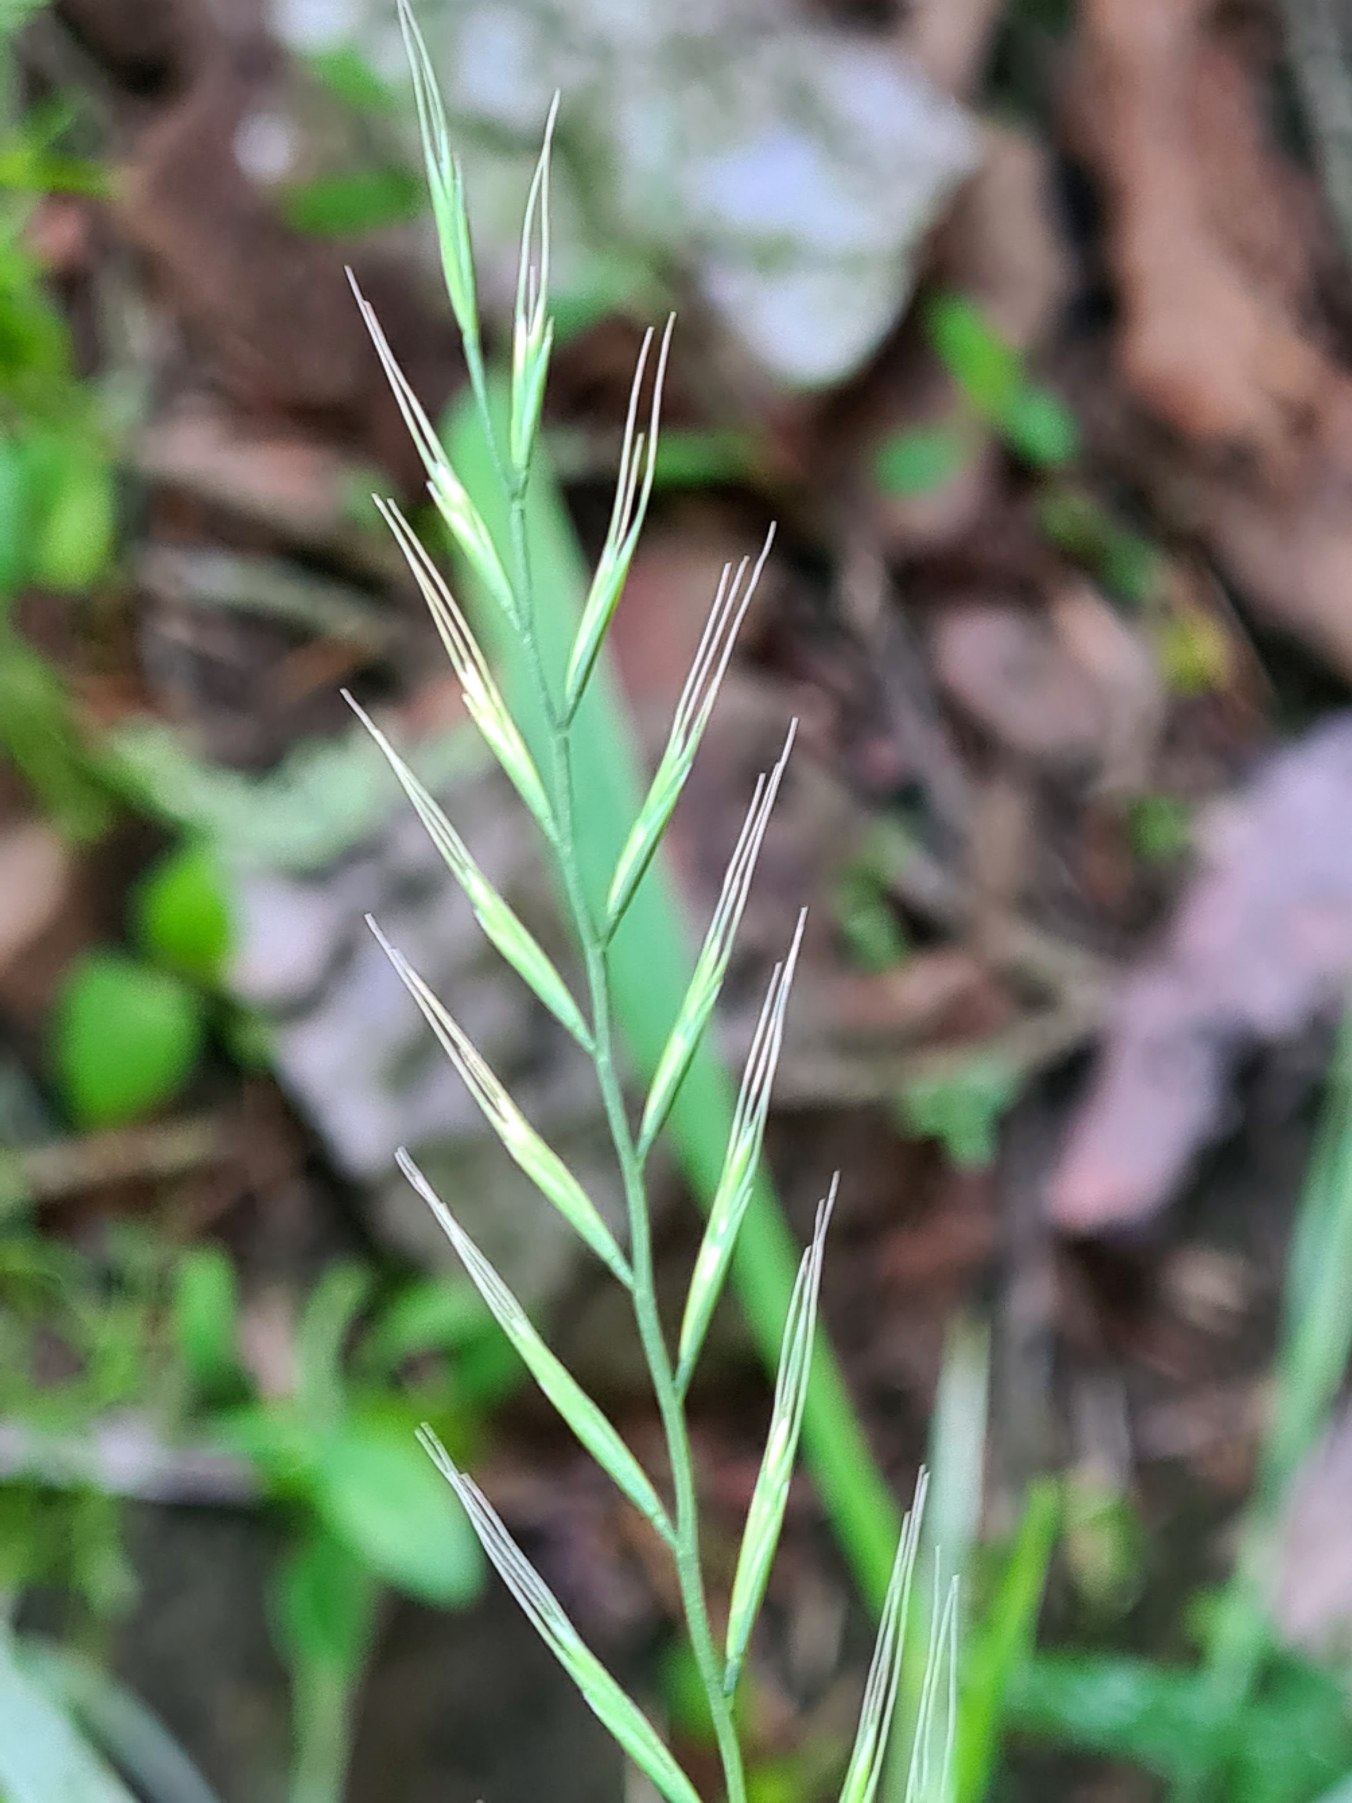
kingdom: Plantae
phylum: Tracheophyta
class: Liliopsida
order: Poales
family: Poaceae
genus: Elymus
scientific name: Elymus caninus
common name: Hundekvik
